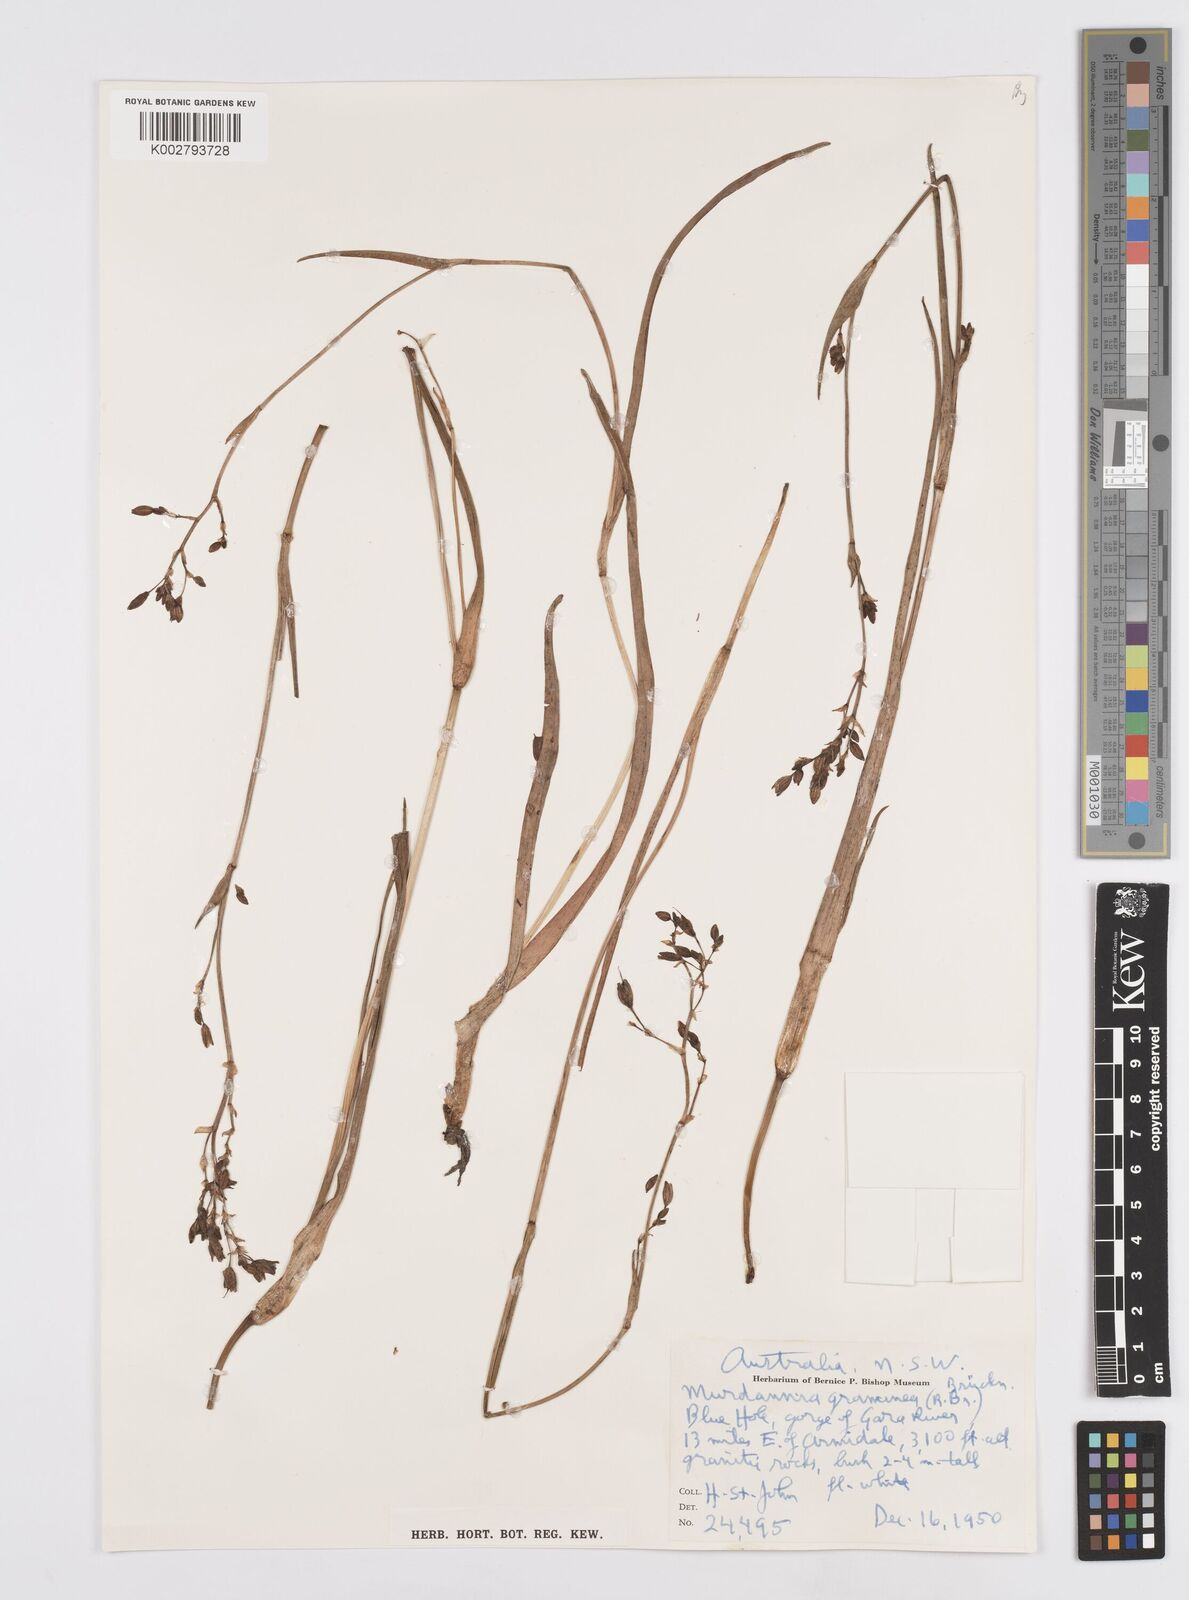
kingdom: Plantae
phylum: Tracheophyta
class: Liliopsida
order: Commelinales
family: Commelinaceae
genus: Murdannia
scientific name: Murdannia graminea
